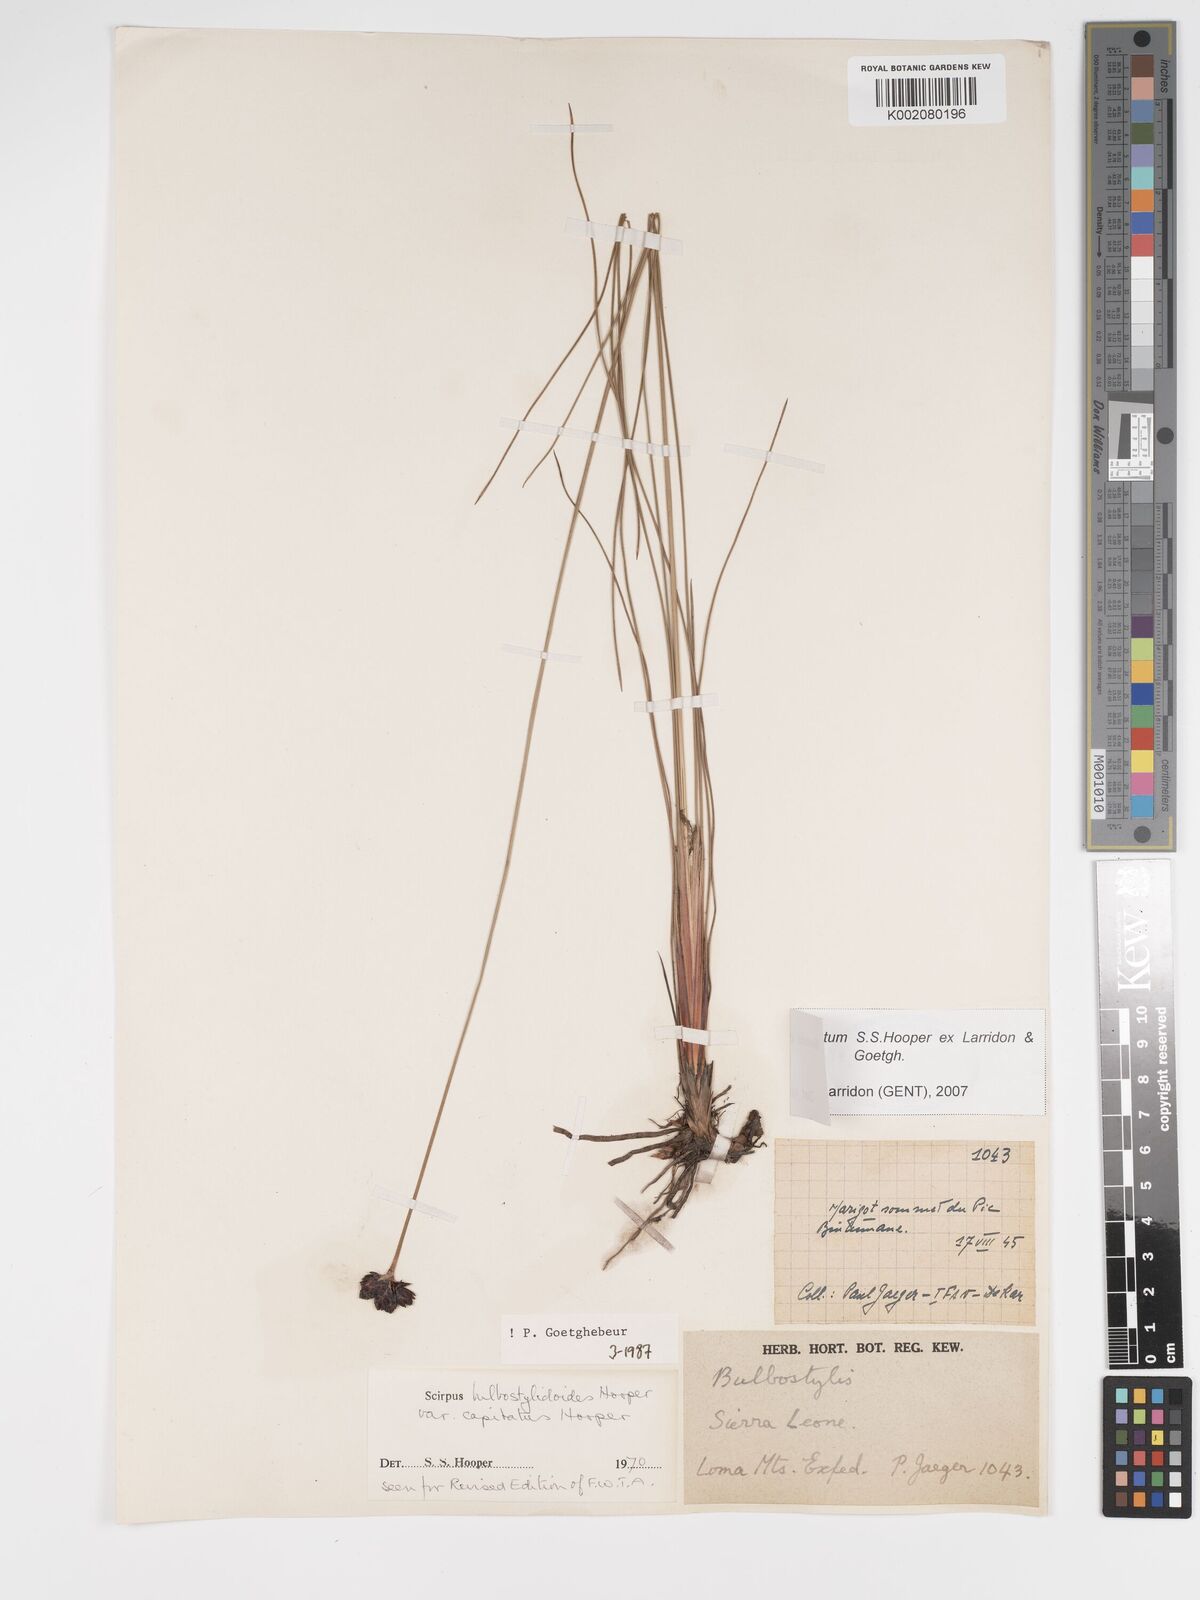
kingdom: Plantae
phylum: Tracheophyta
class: Liliopsida
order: Poales
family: Cyperaceae
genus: Bulbostylis
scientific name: Bulbostylis neocapitata
